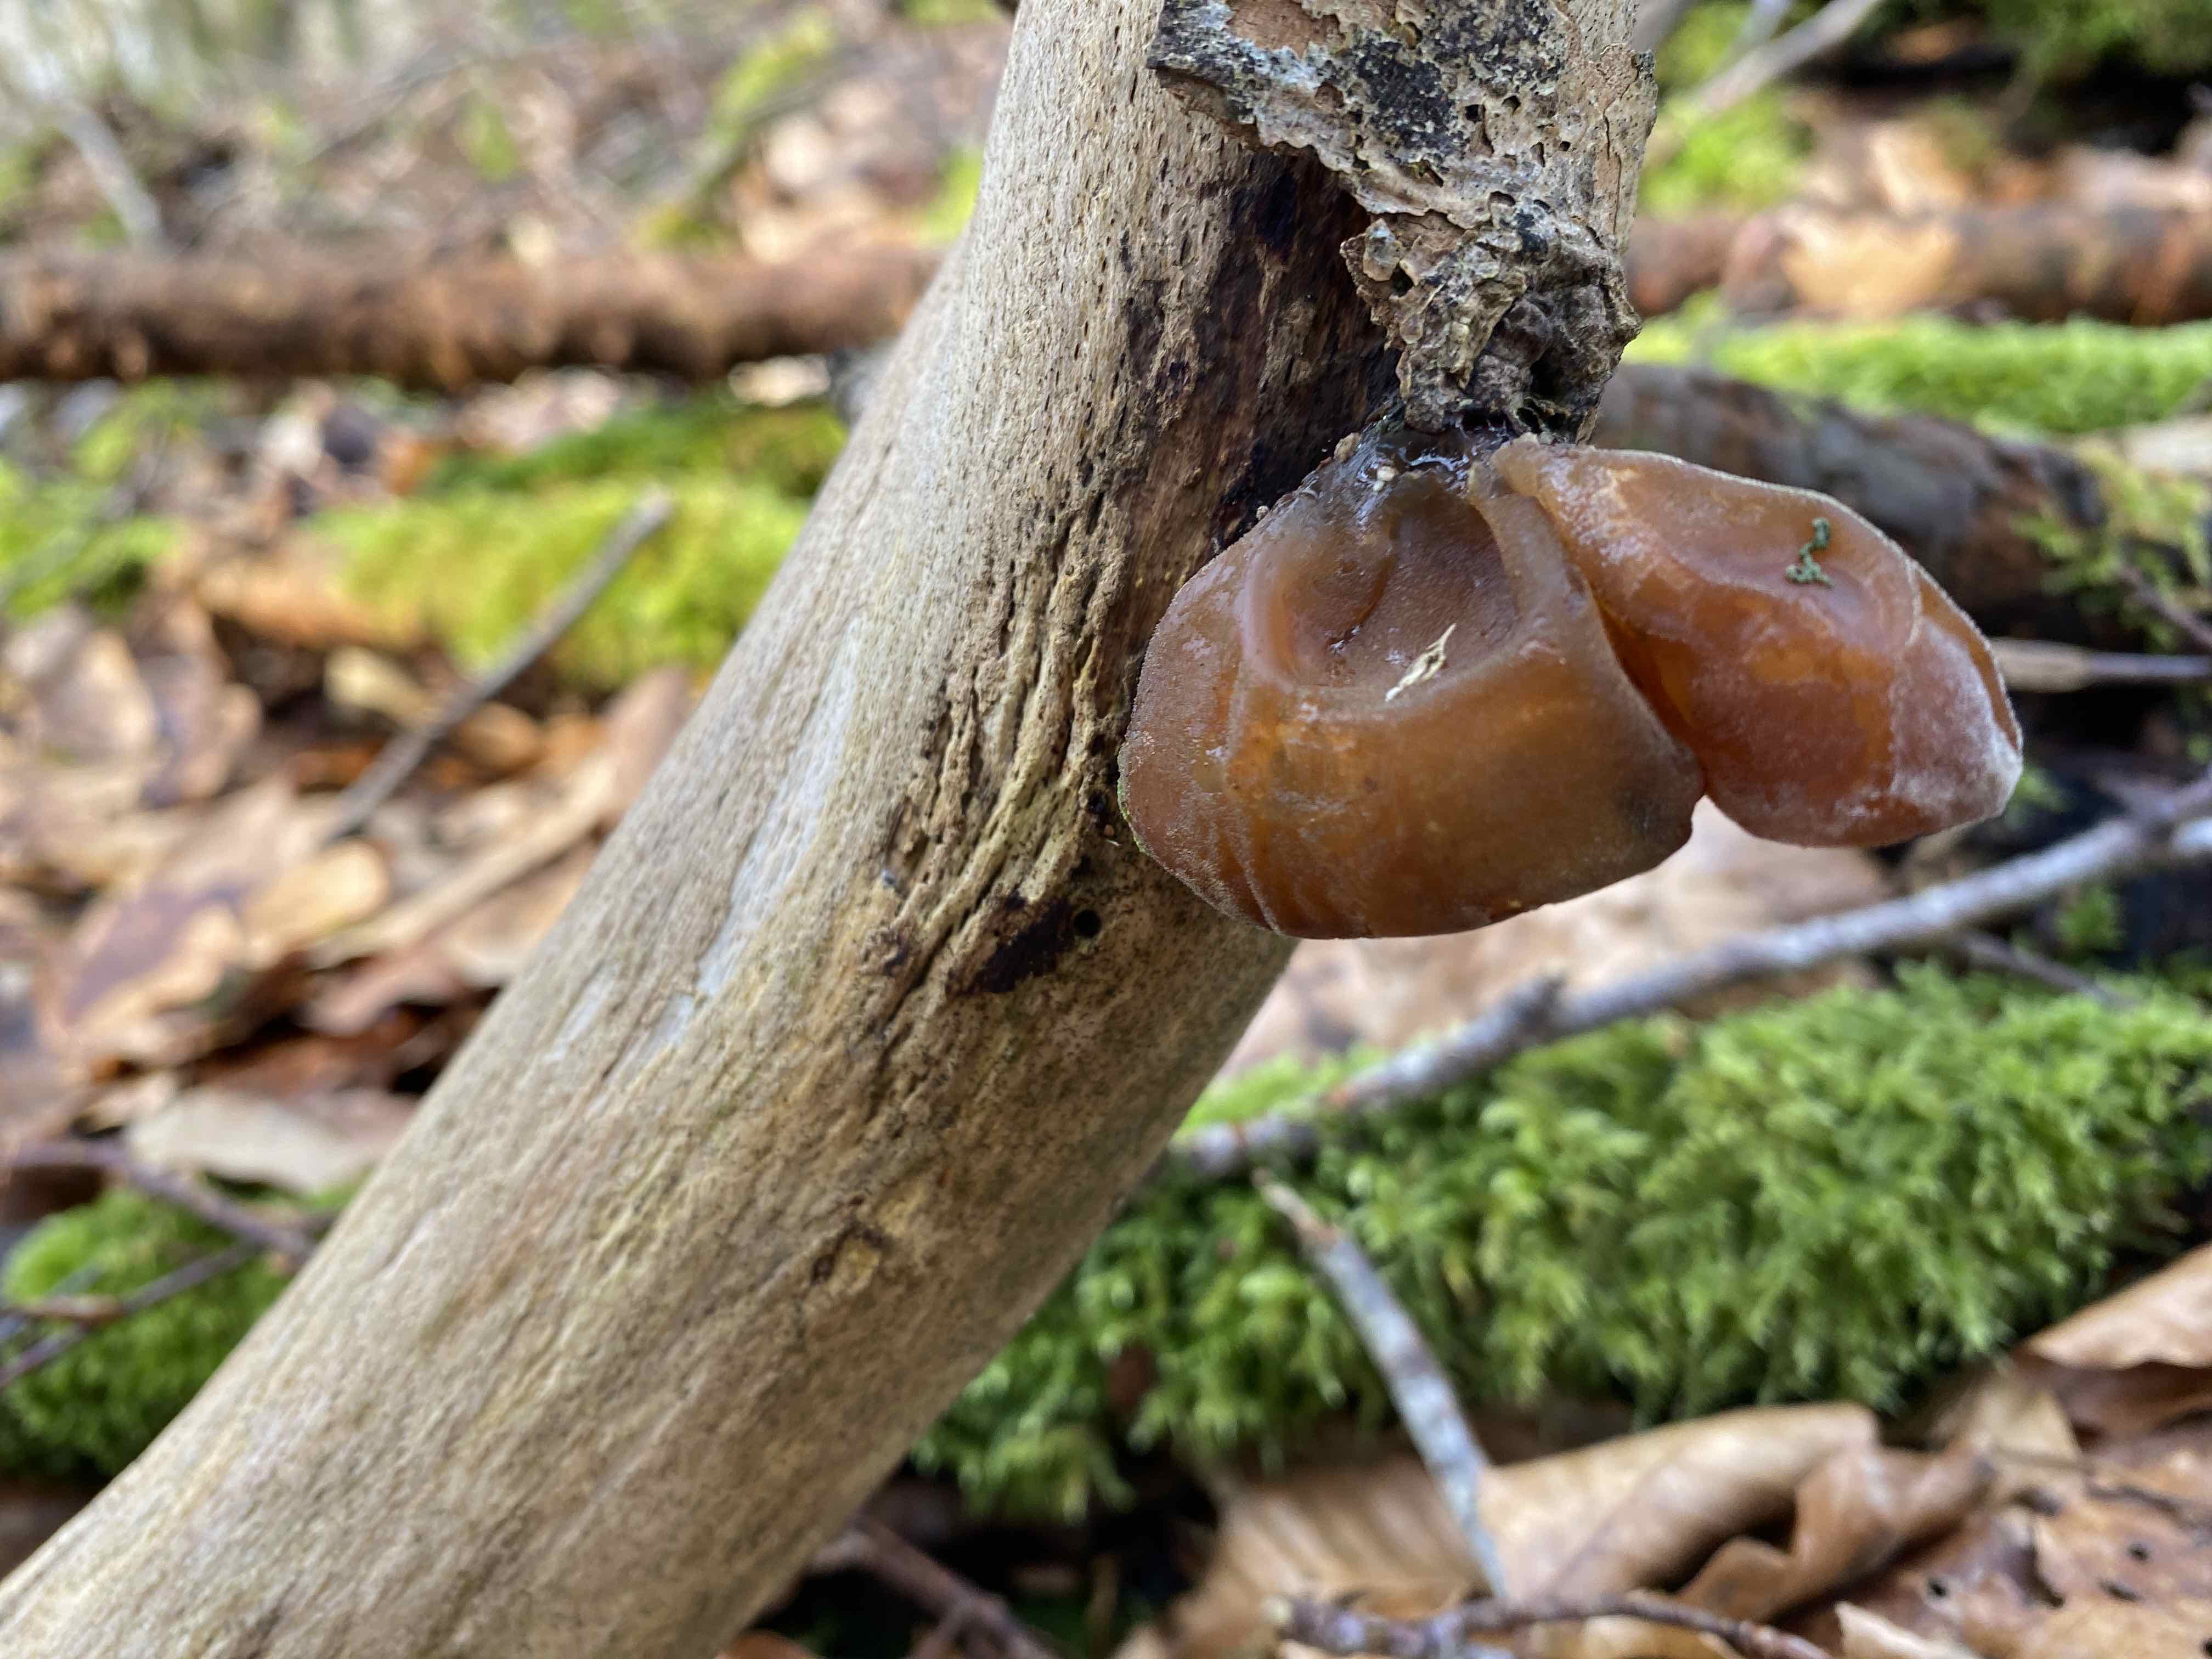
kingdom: Fungi
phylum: Basidiomycota
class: Agaricomycetes
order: Auriculariales
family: Auriculariaceae
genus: Auricularia
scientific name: Auricularia auricula-judae
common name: almindelig judasøre
